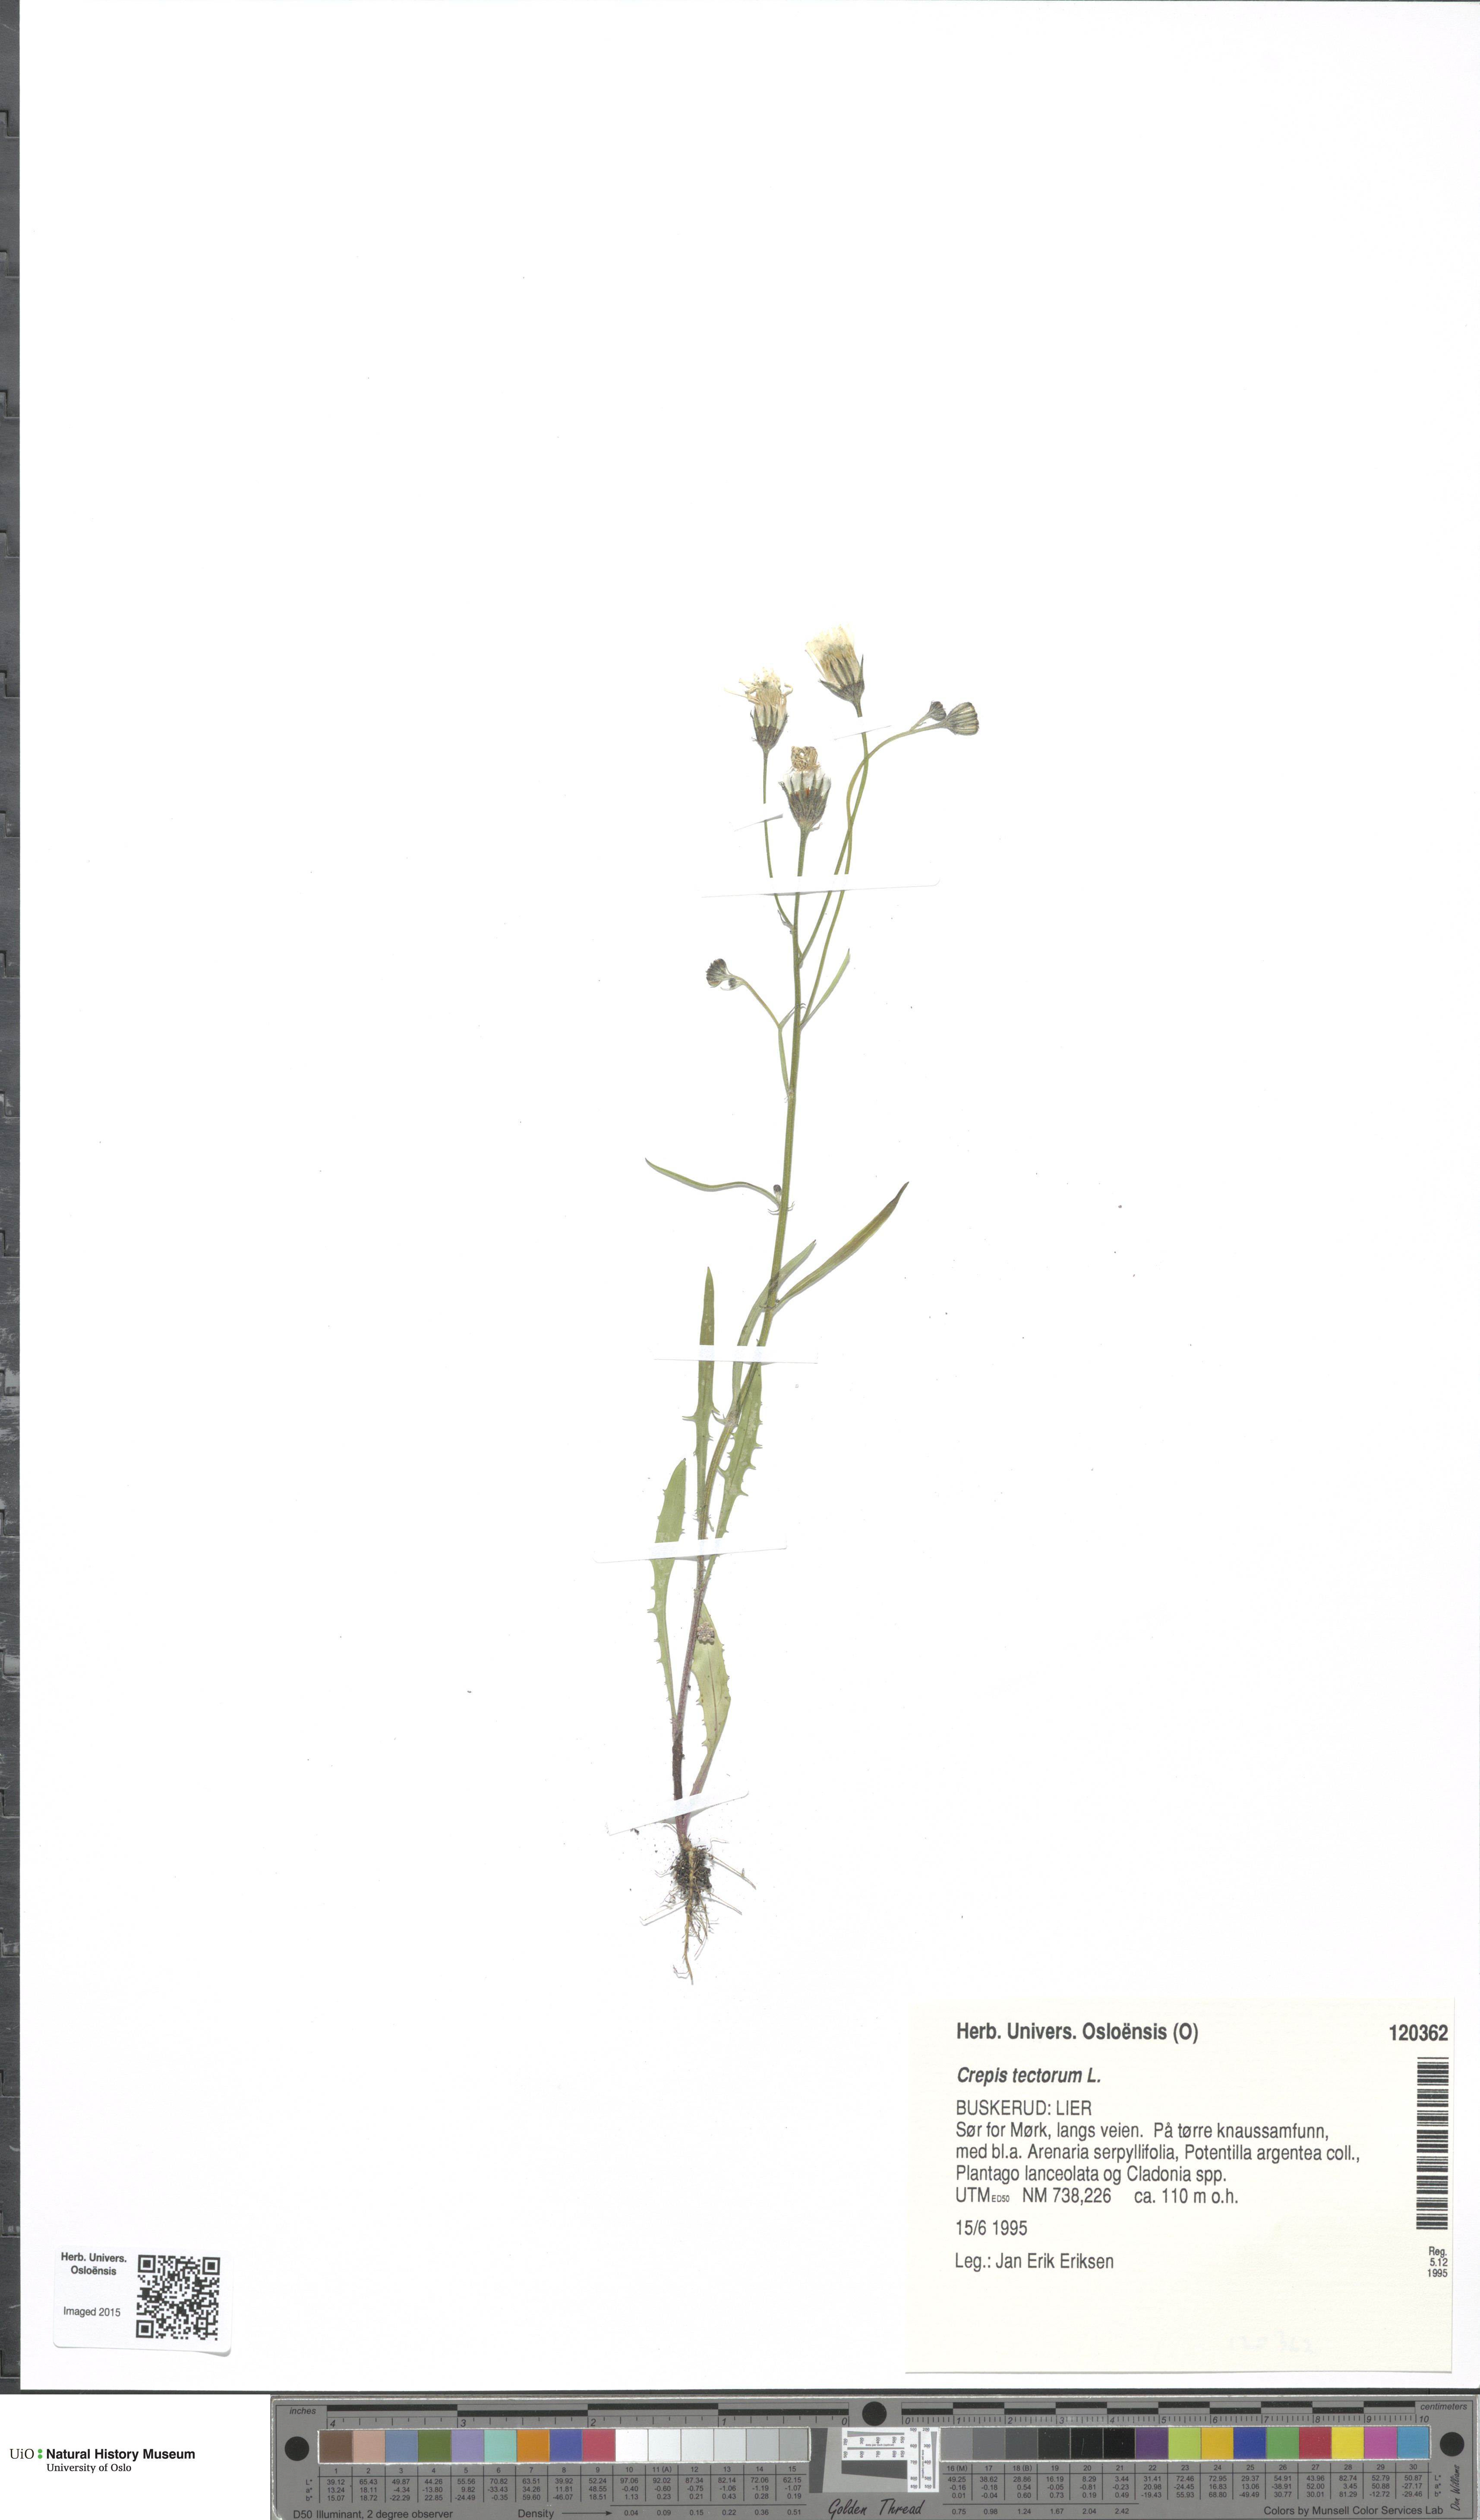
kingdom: Plantae
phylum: Tracheophyta
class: Magnoliopsida
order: Asterales
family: Asteraceae
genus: Crepis
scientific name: Crepis tectorum
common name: Narrow-leaved hawk's-beard
